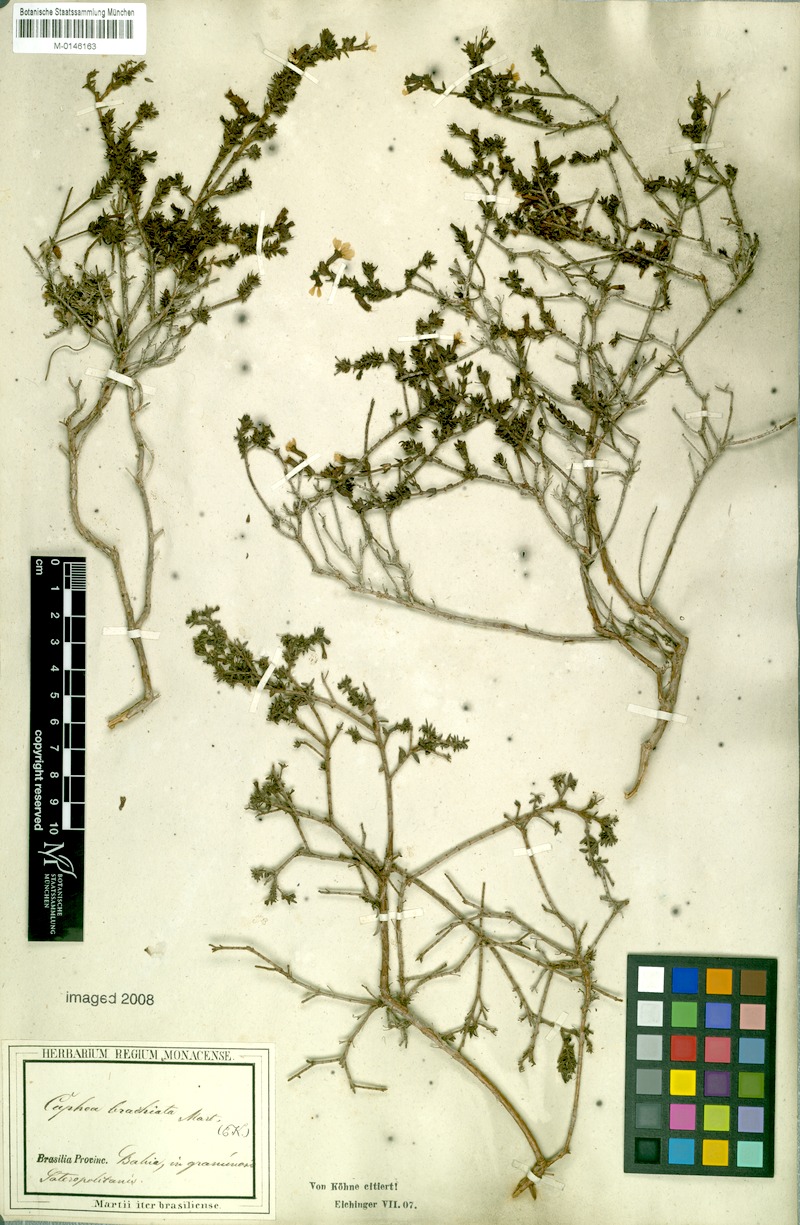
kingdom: Plantae
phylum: Tracheophyta
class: Magnoliopsida
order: Myrtales
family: Lythraceae
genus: Cuphea
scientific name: Cuphea brachiata
